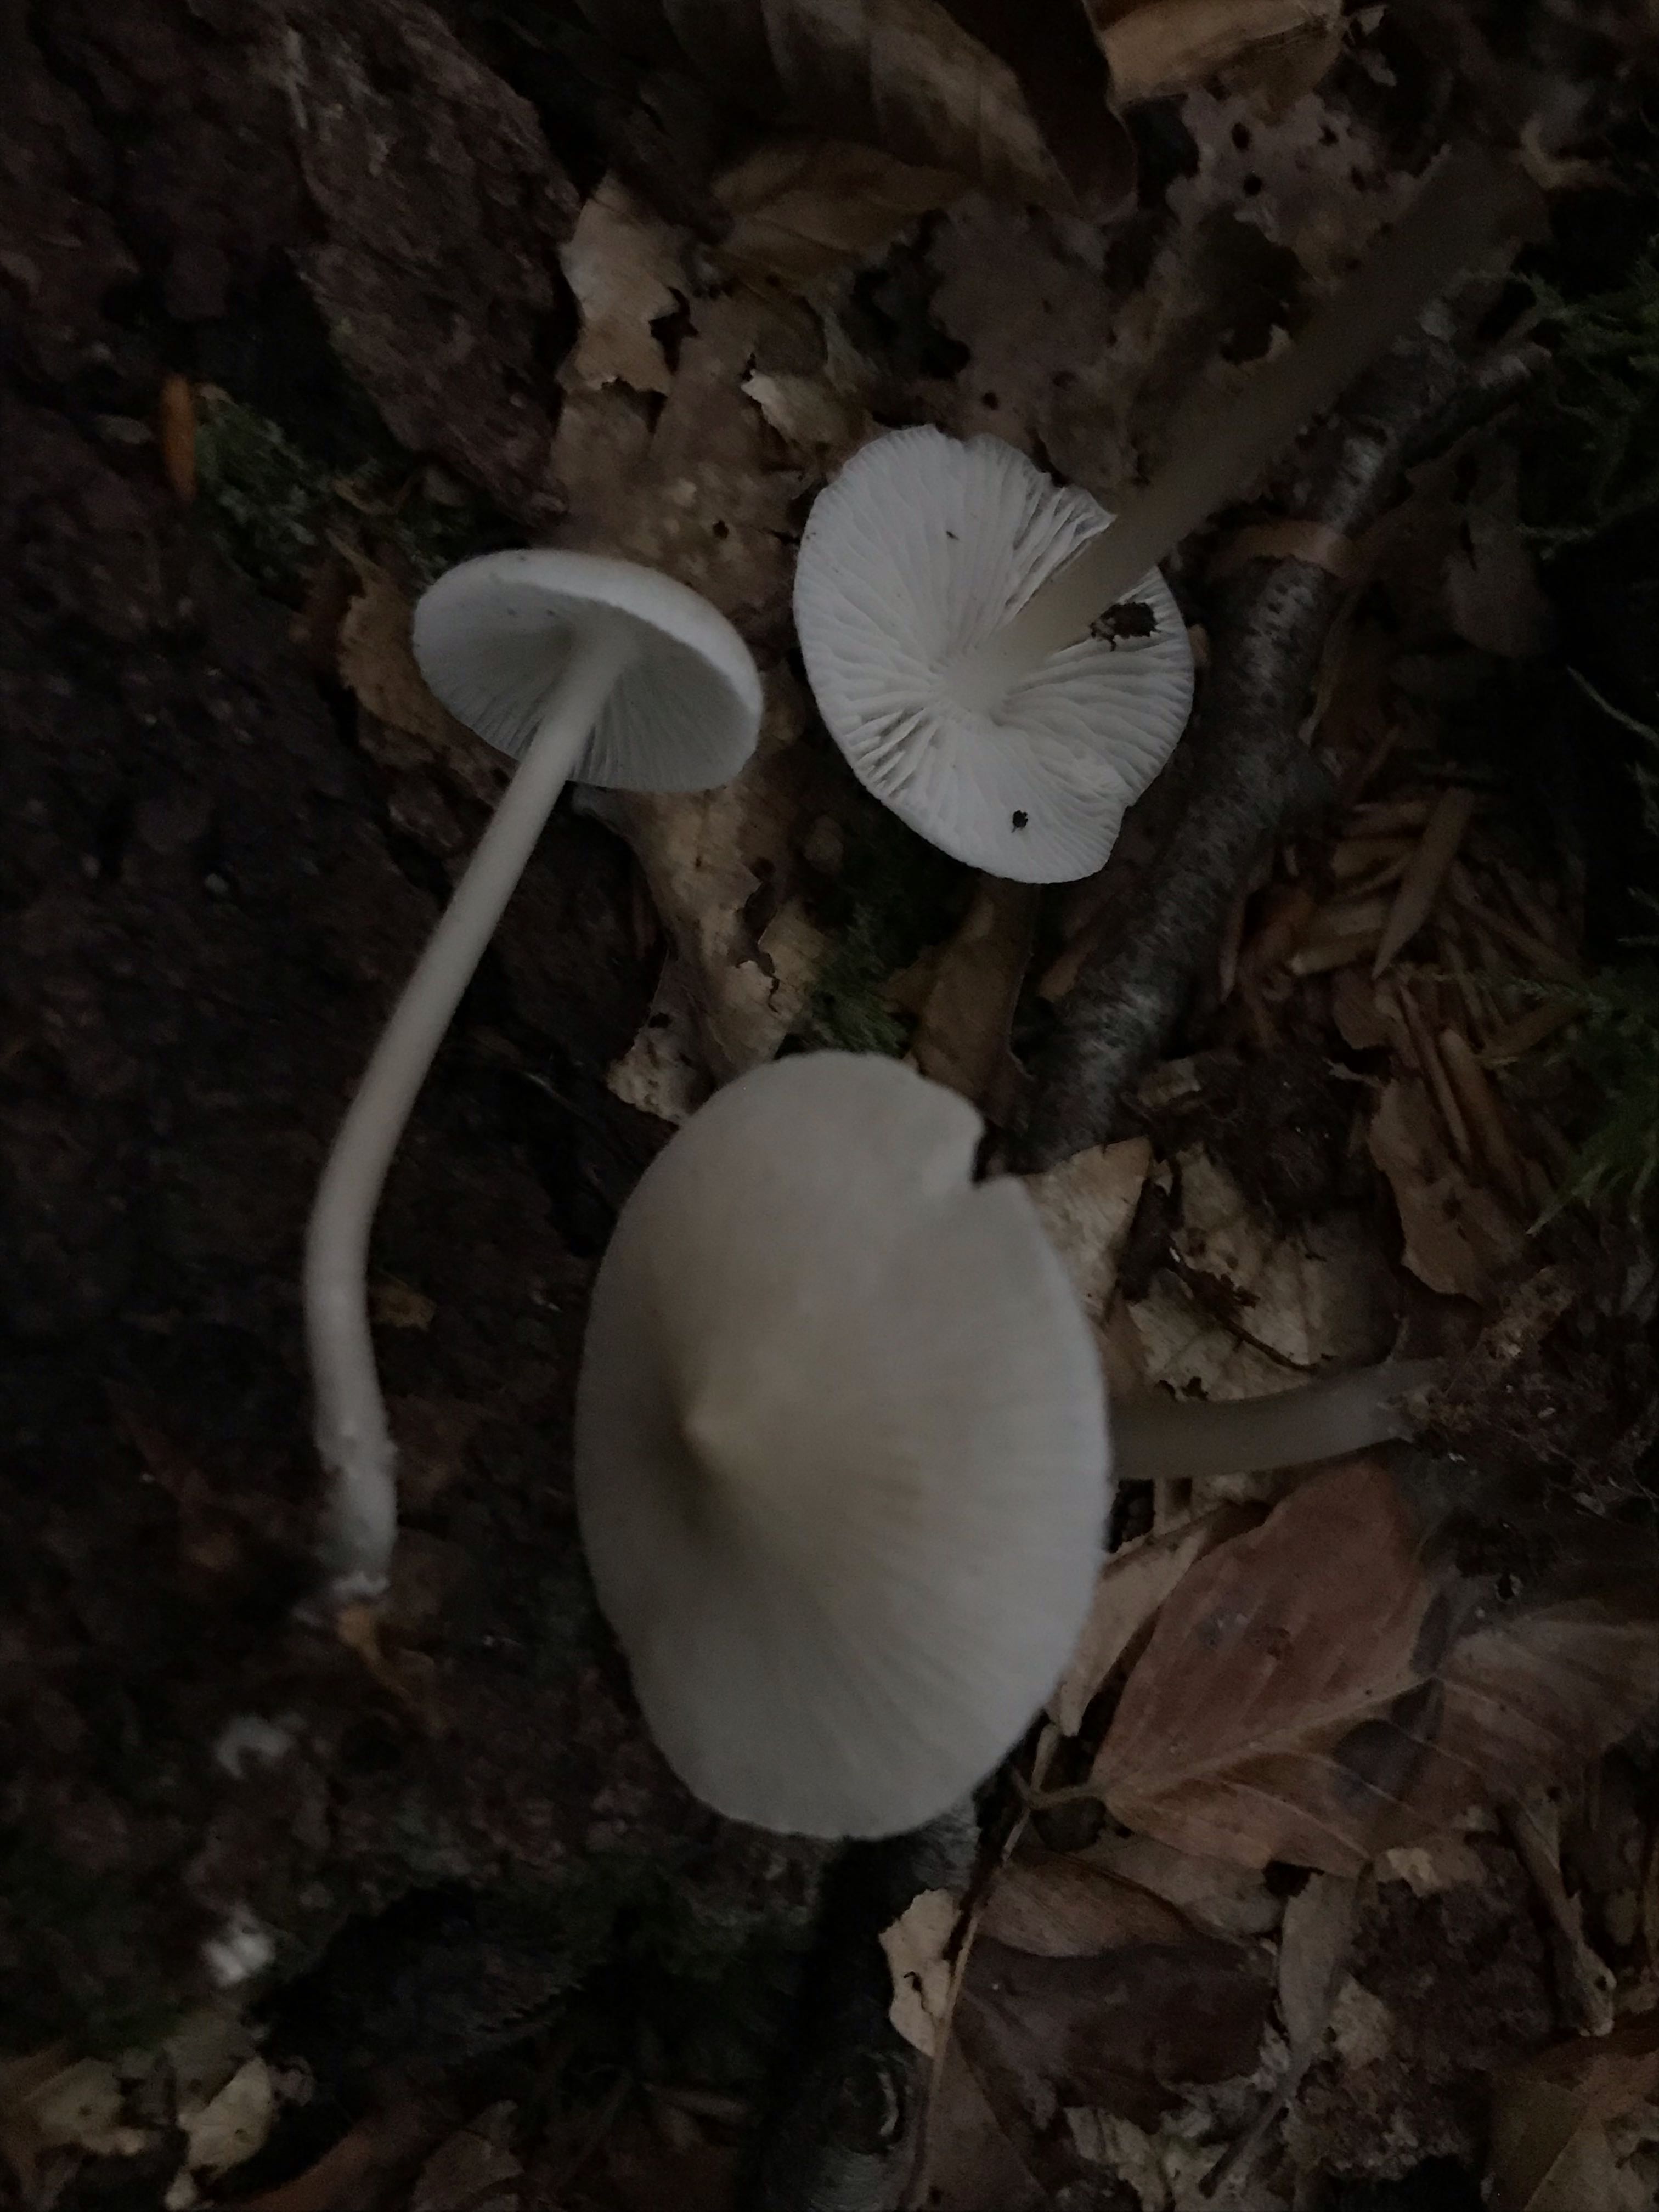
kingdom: Fungi
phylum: Basidiomycota
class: Agaricomycetes
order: Agaricales
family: Mycenaceae
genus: Mycena
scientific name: Mycena galericulata
